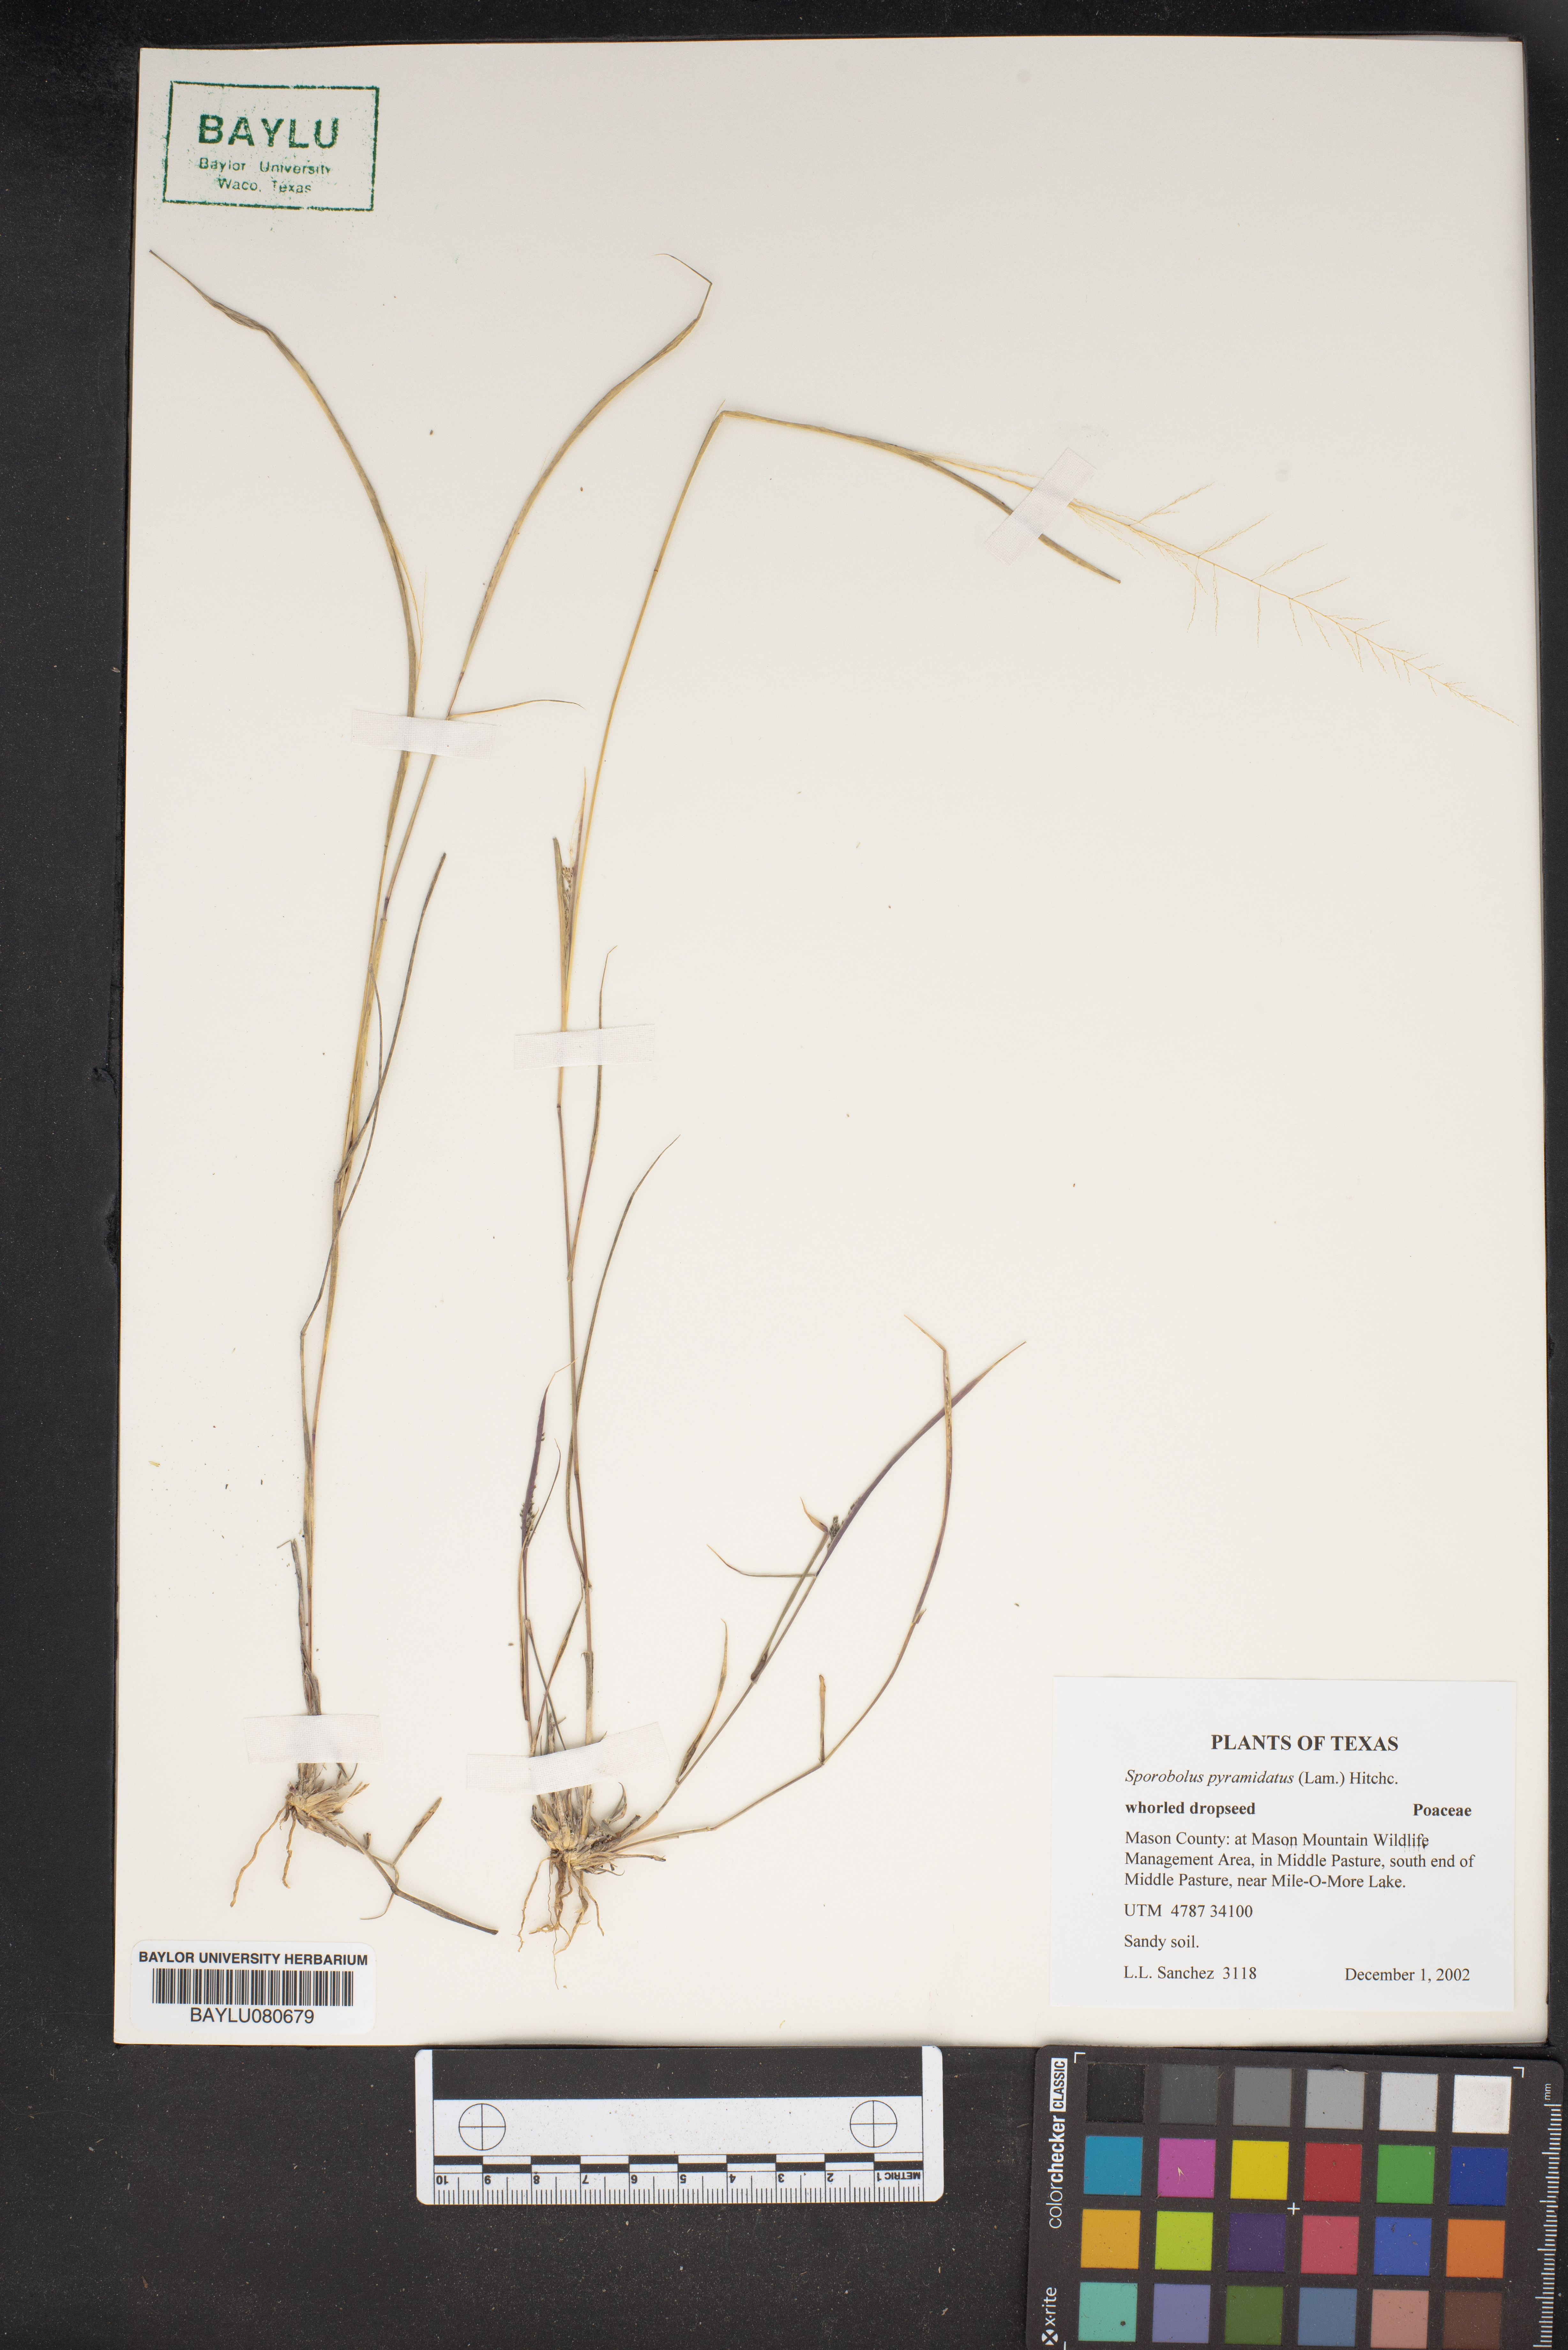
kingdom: Plantae
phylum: Tracheophyta
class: Liliopsida
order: Poales
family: Poaceae
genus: Sporobolus
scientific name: Sporobolus pyramidatus
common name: Whorled dropseed
